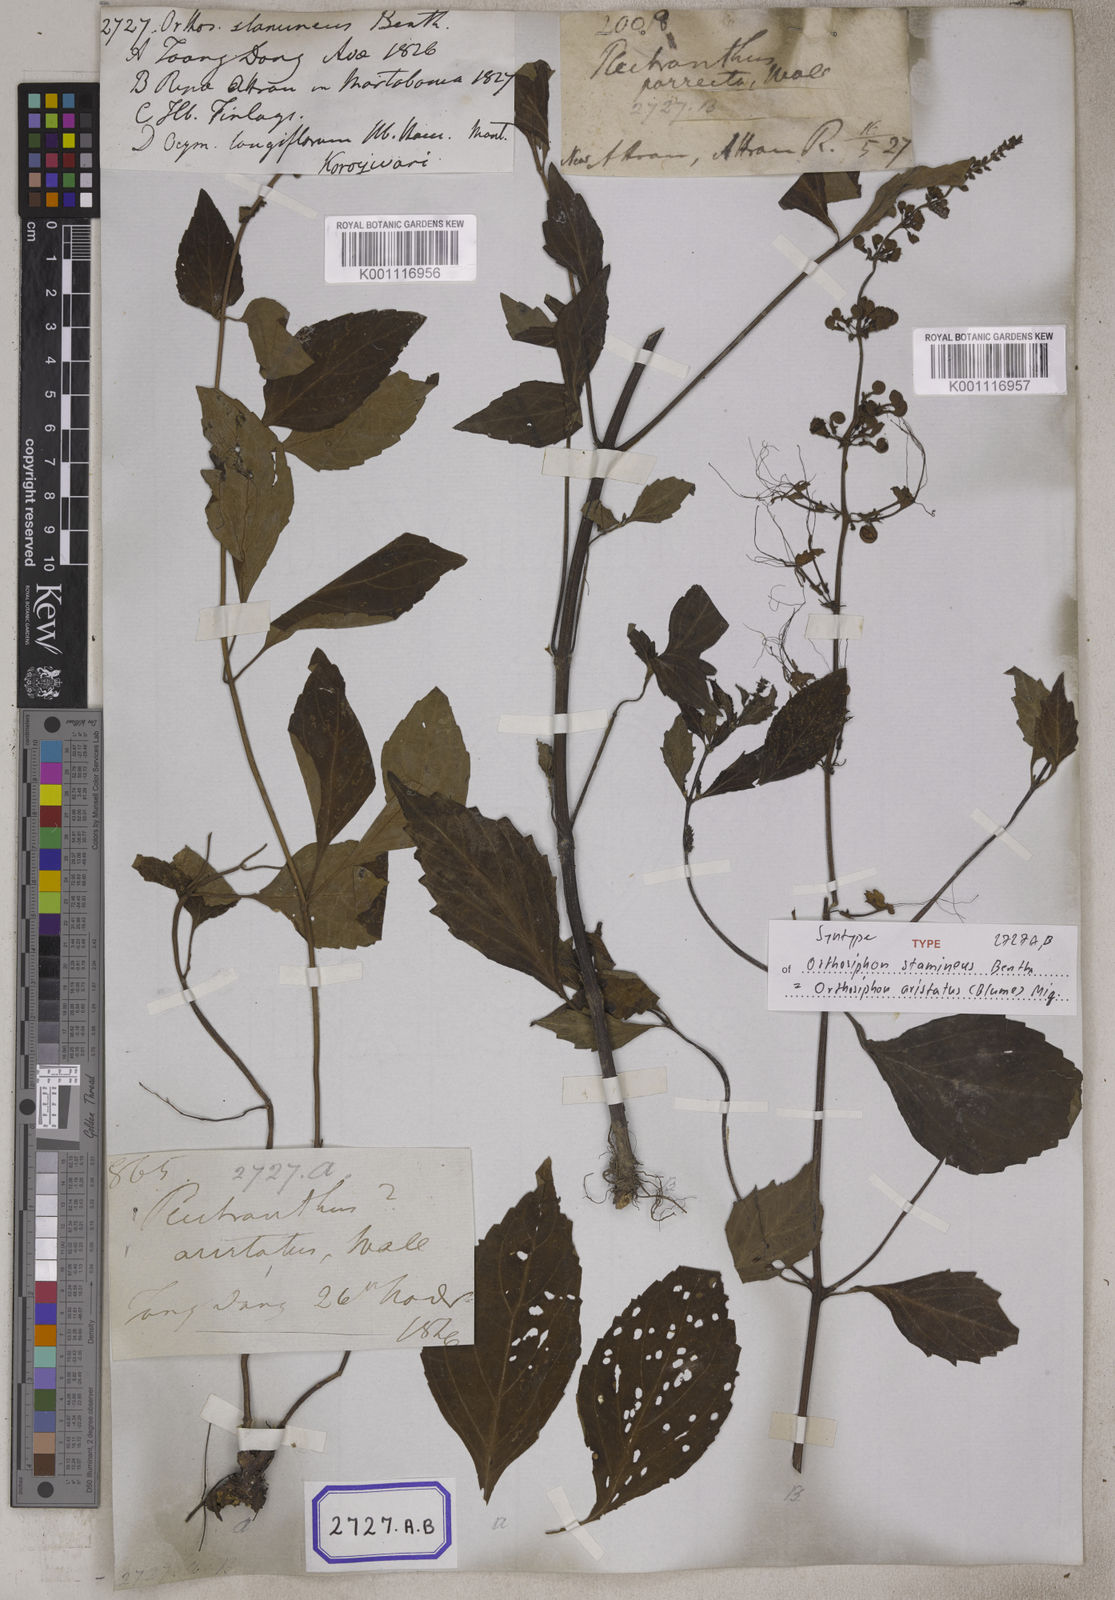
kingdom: Plantae
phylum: Tracheophyta
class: Magnoliopsida
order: Lamiales
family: Lamiaceae
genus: Orthosiphon
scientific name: Orthosiphon aristatus
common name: Whiskerplant
